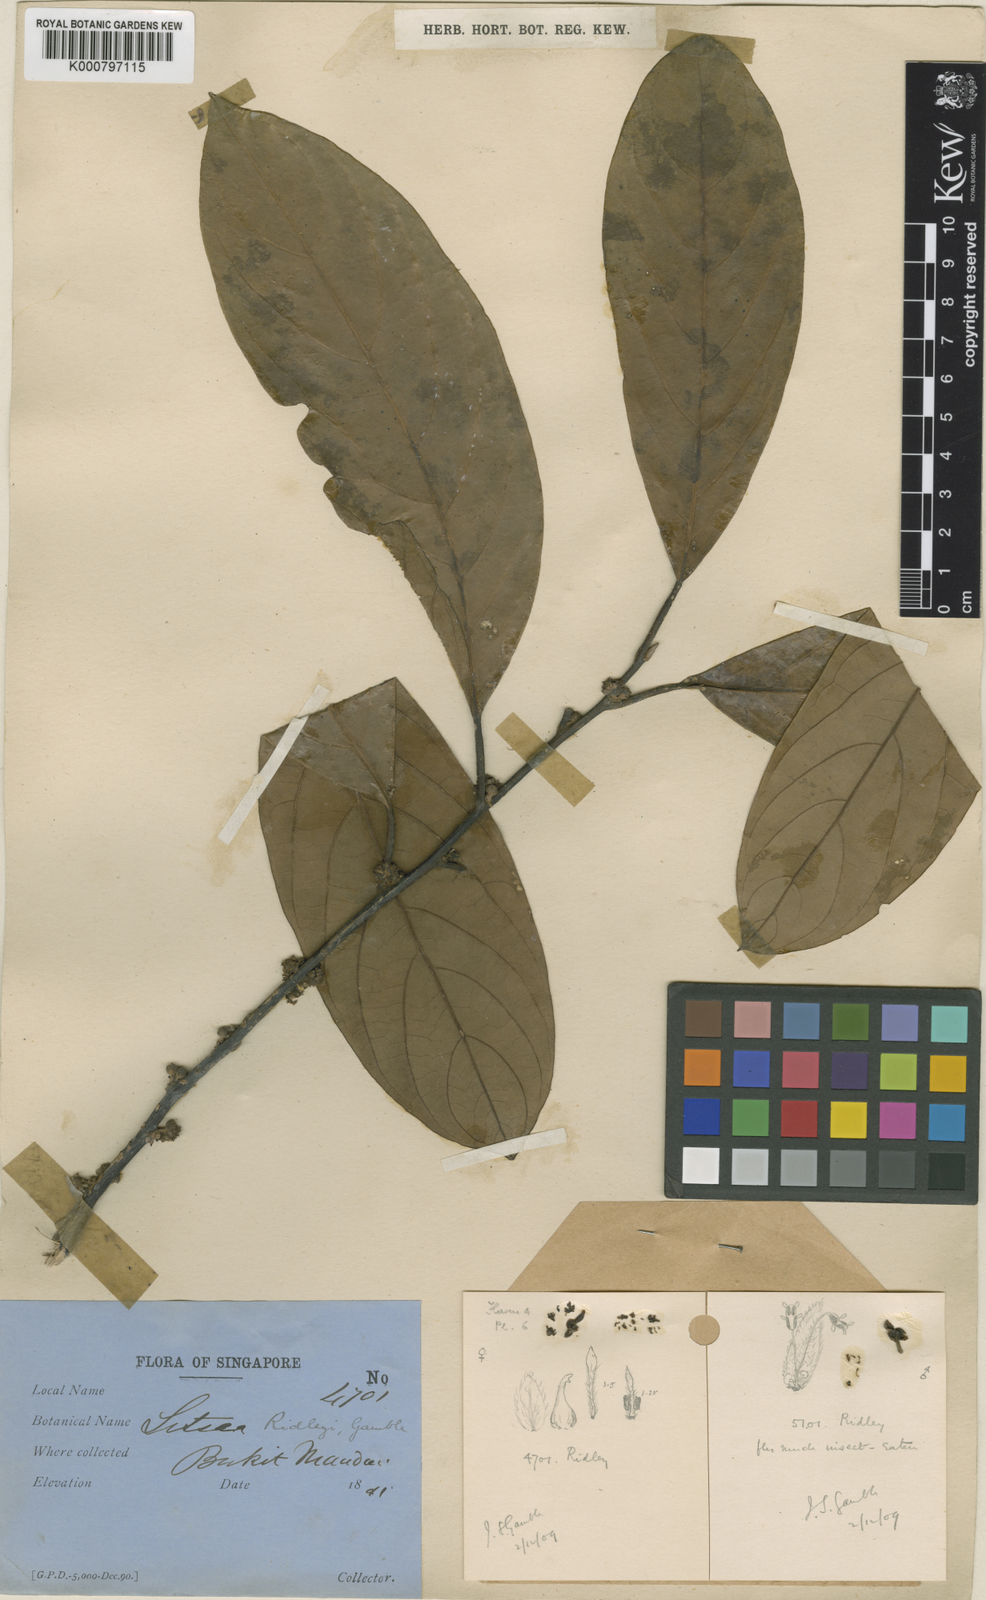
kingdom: Plantae
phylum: Tracheophyta
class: Magnoliopsida
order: Laurales
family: Lauraceae
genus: Litsea
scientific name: Litsea ridleyi
